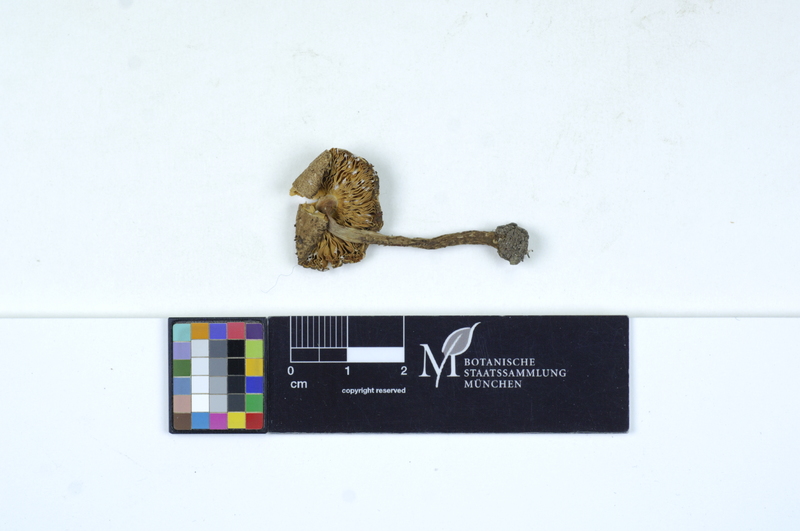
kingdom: Fungi
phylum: Basidiomycota
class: Agaricomycetes
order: Agaricales
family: Agaricaceae
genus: Cystolepiota
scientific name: Cystolepiota eriophora
